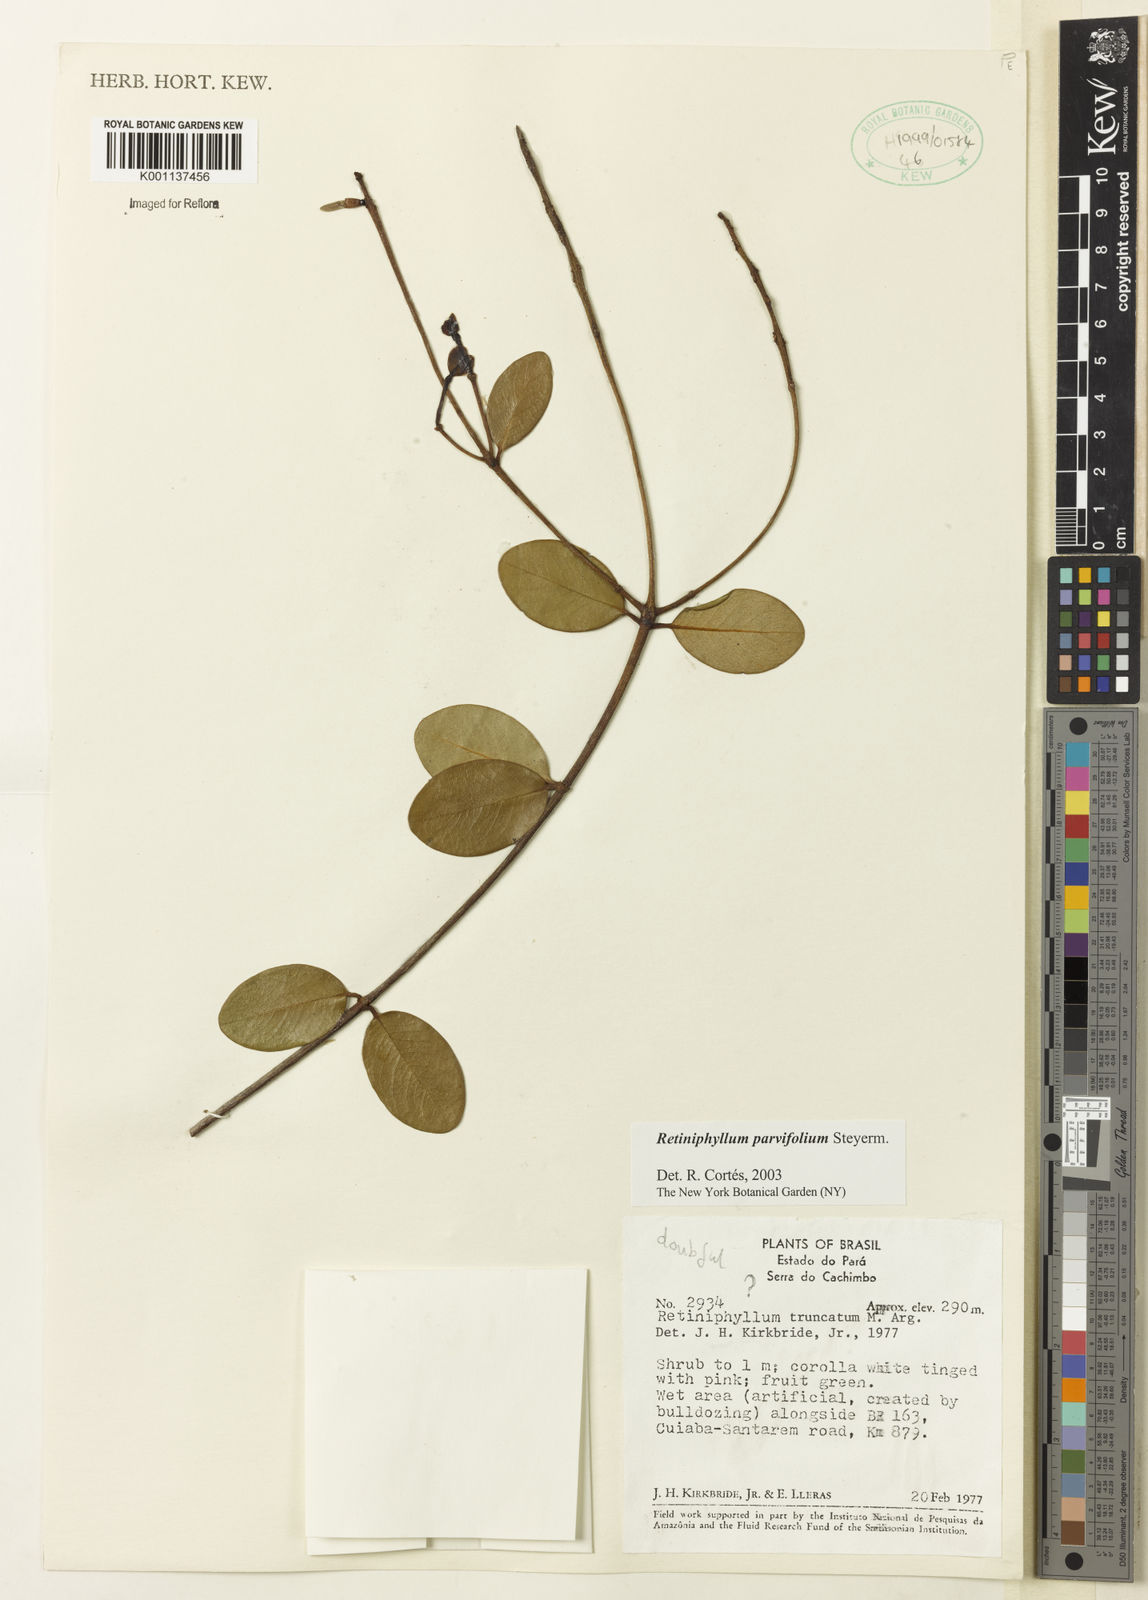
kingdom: Plantae
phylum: Tracheophyta
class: Magnoliopsida
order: Gentianales
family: Rubiaceae
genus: Retiniphyllum
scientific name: Retiniphyllum parvifolium
